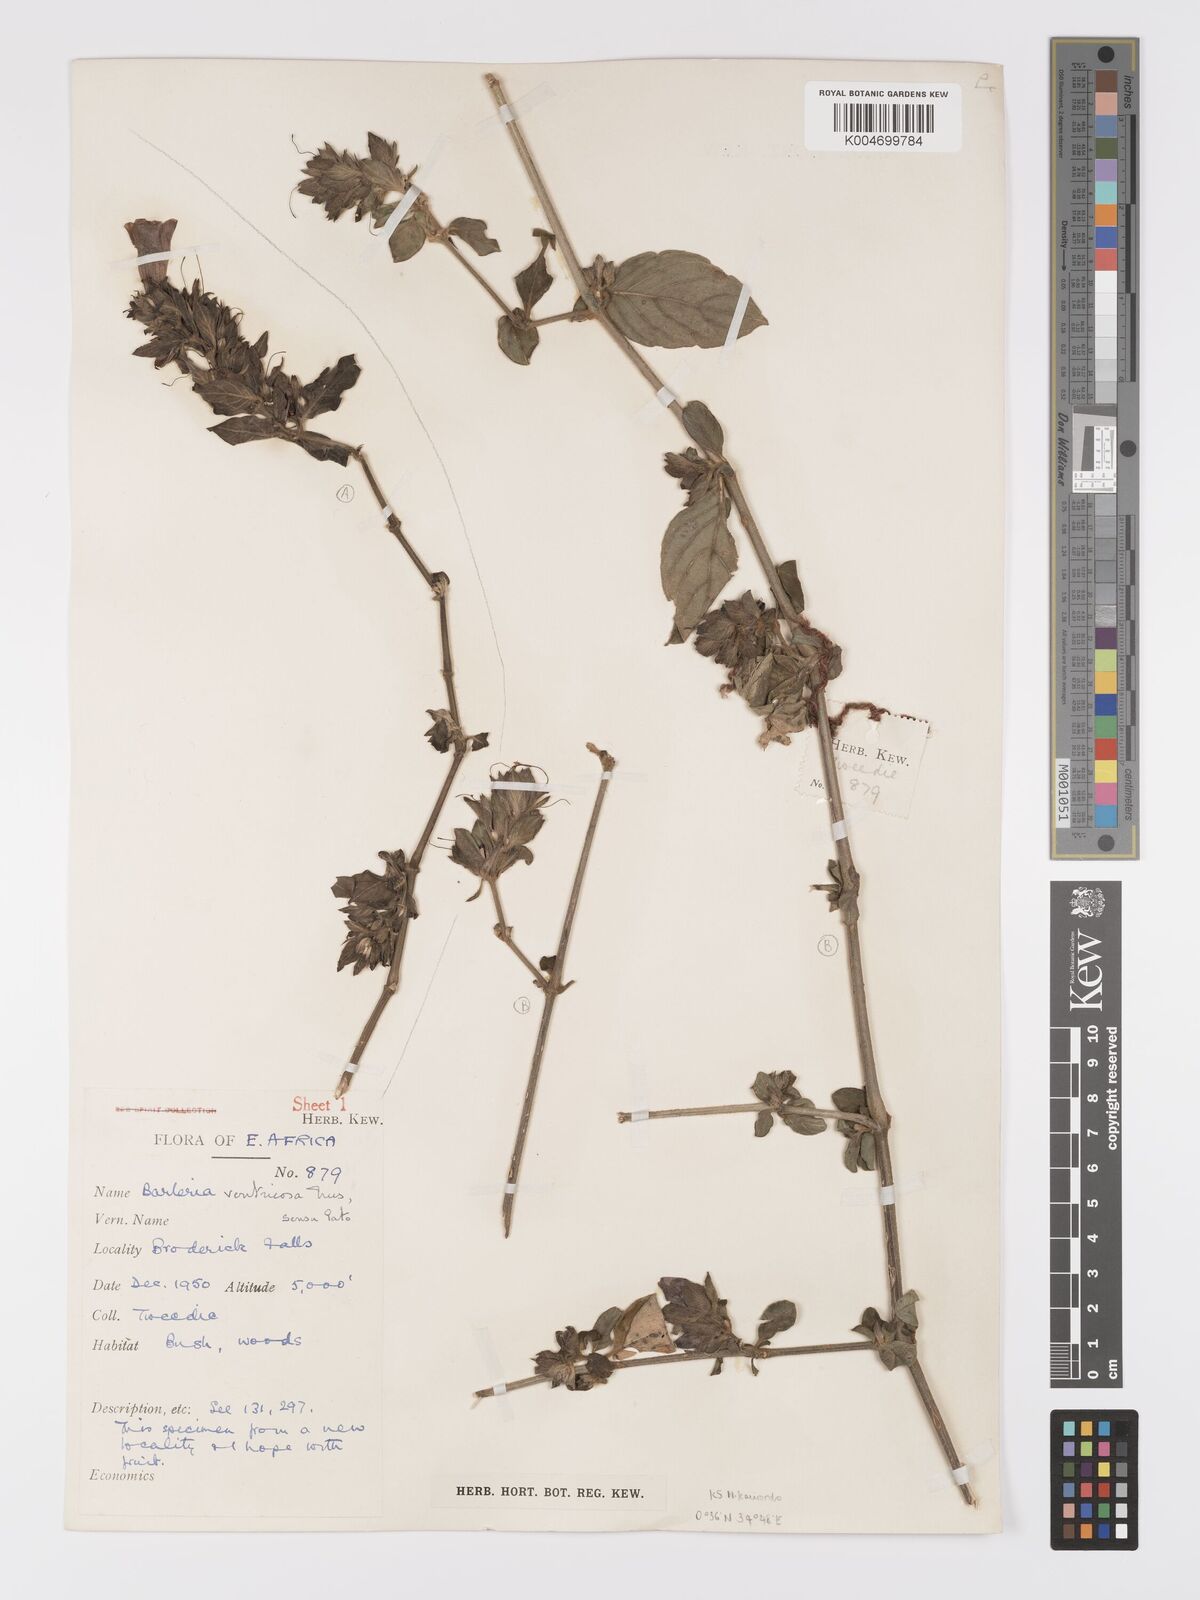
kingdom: Plantae
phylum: Tracheophyta
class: Magnoliopsida
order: Lamiales
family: Acanthaceae
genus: Barleria
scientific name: Barleria ventricosa
